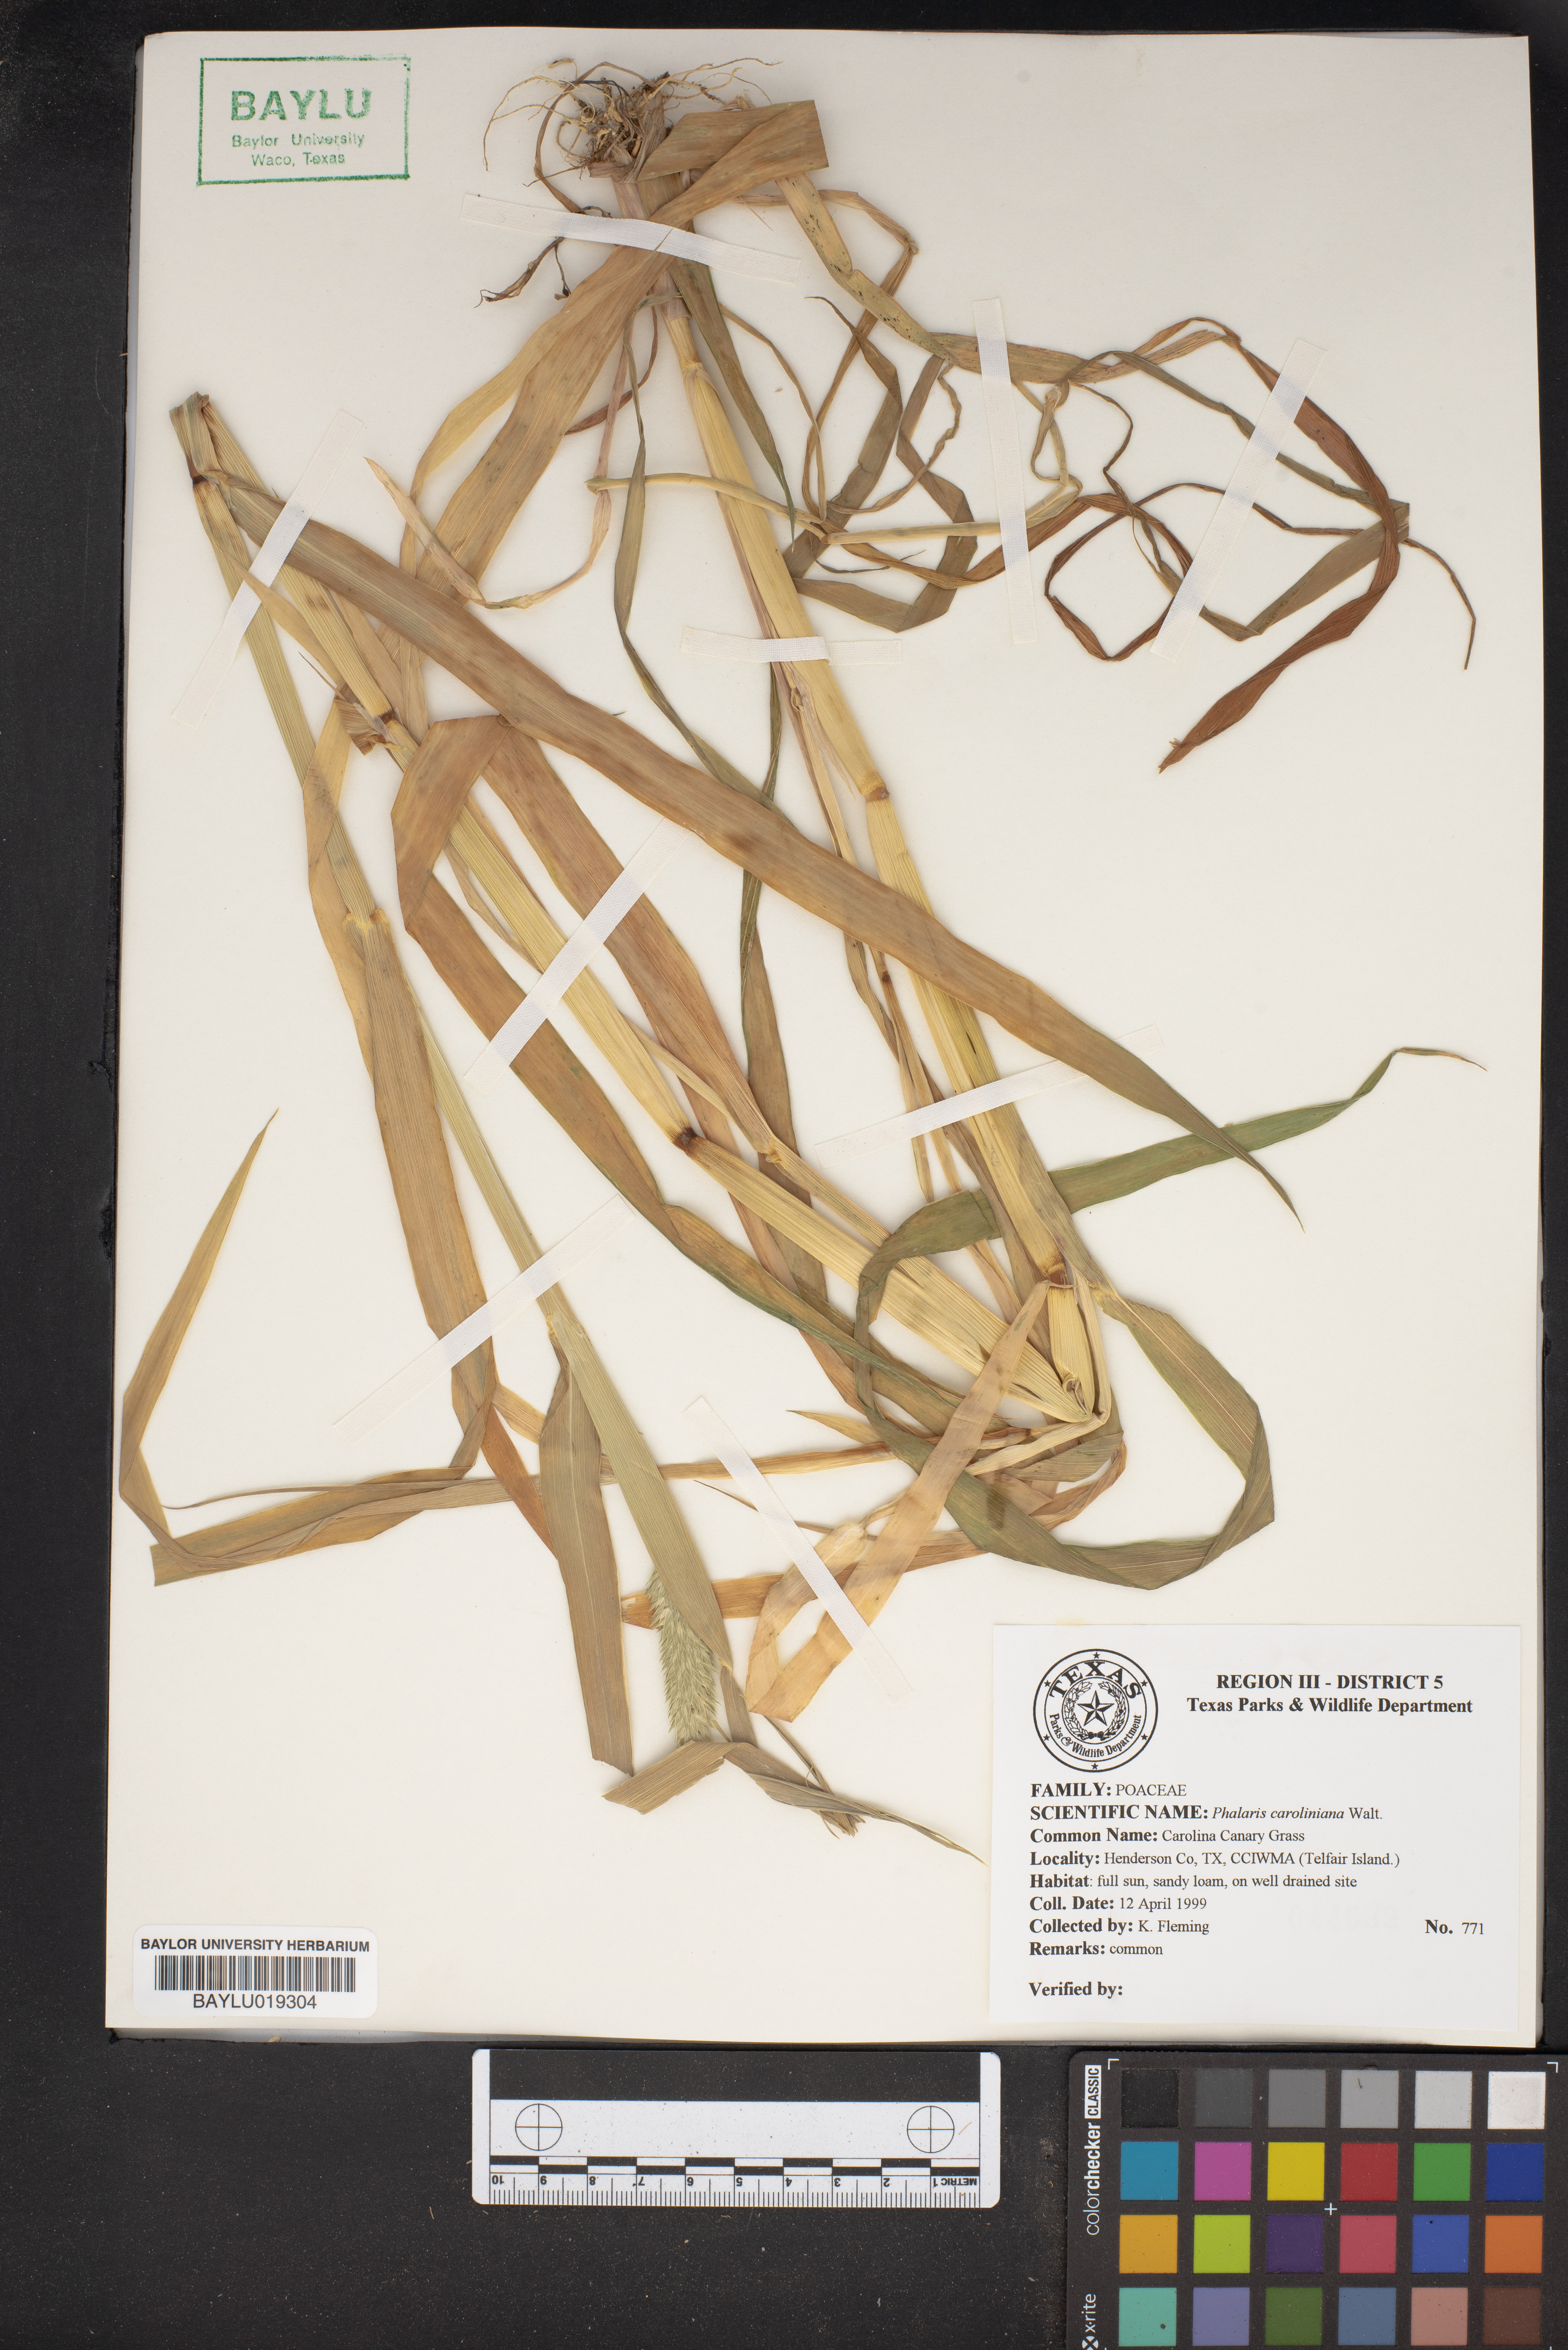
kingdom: Plantae
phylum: Tracheophyta
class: Liliopsida
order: Poales
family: Poaceae
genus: Phalaris
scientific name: Phalaris caroliniana
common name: May grass
